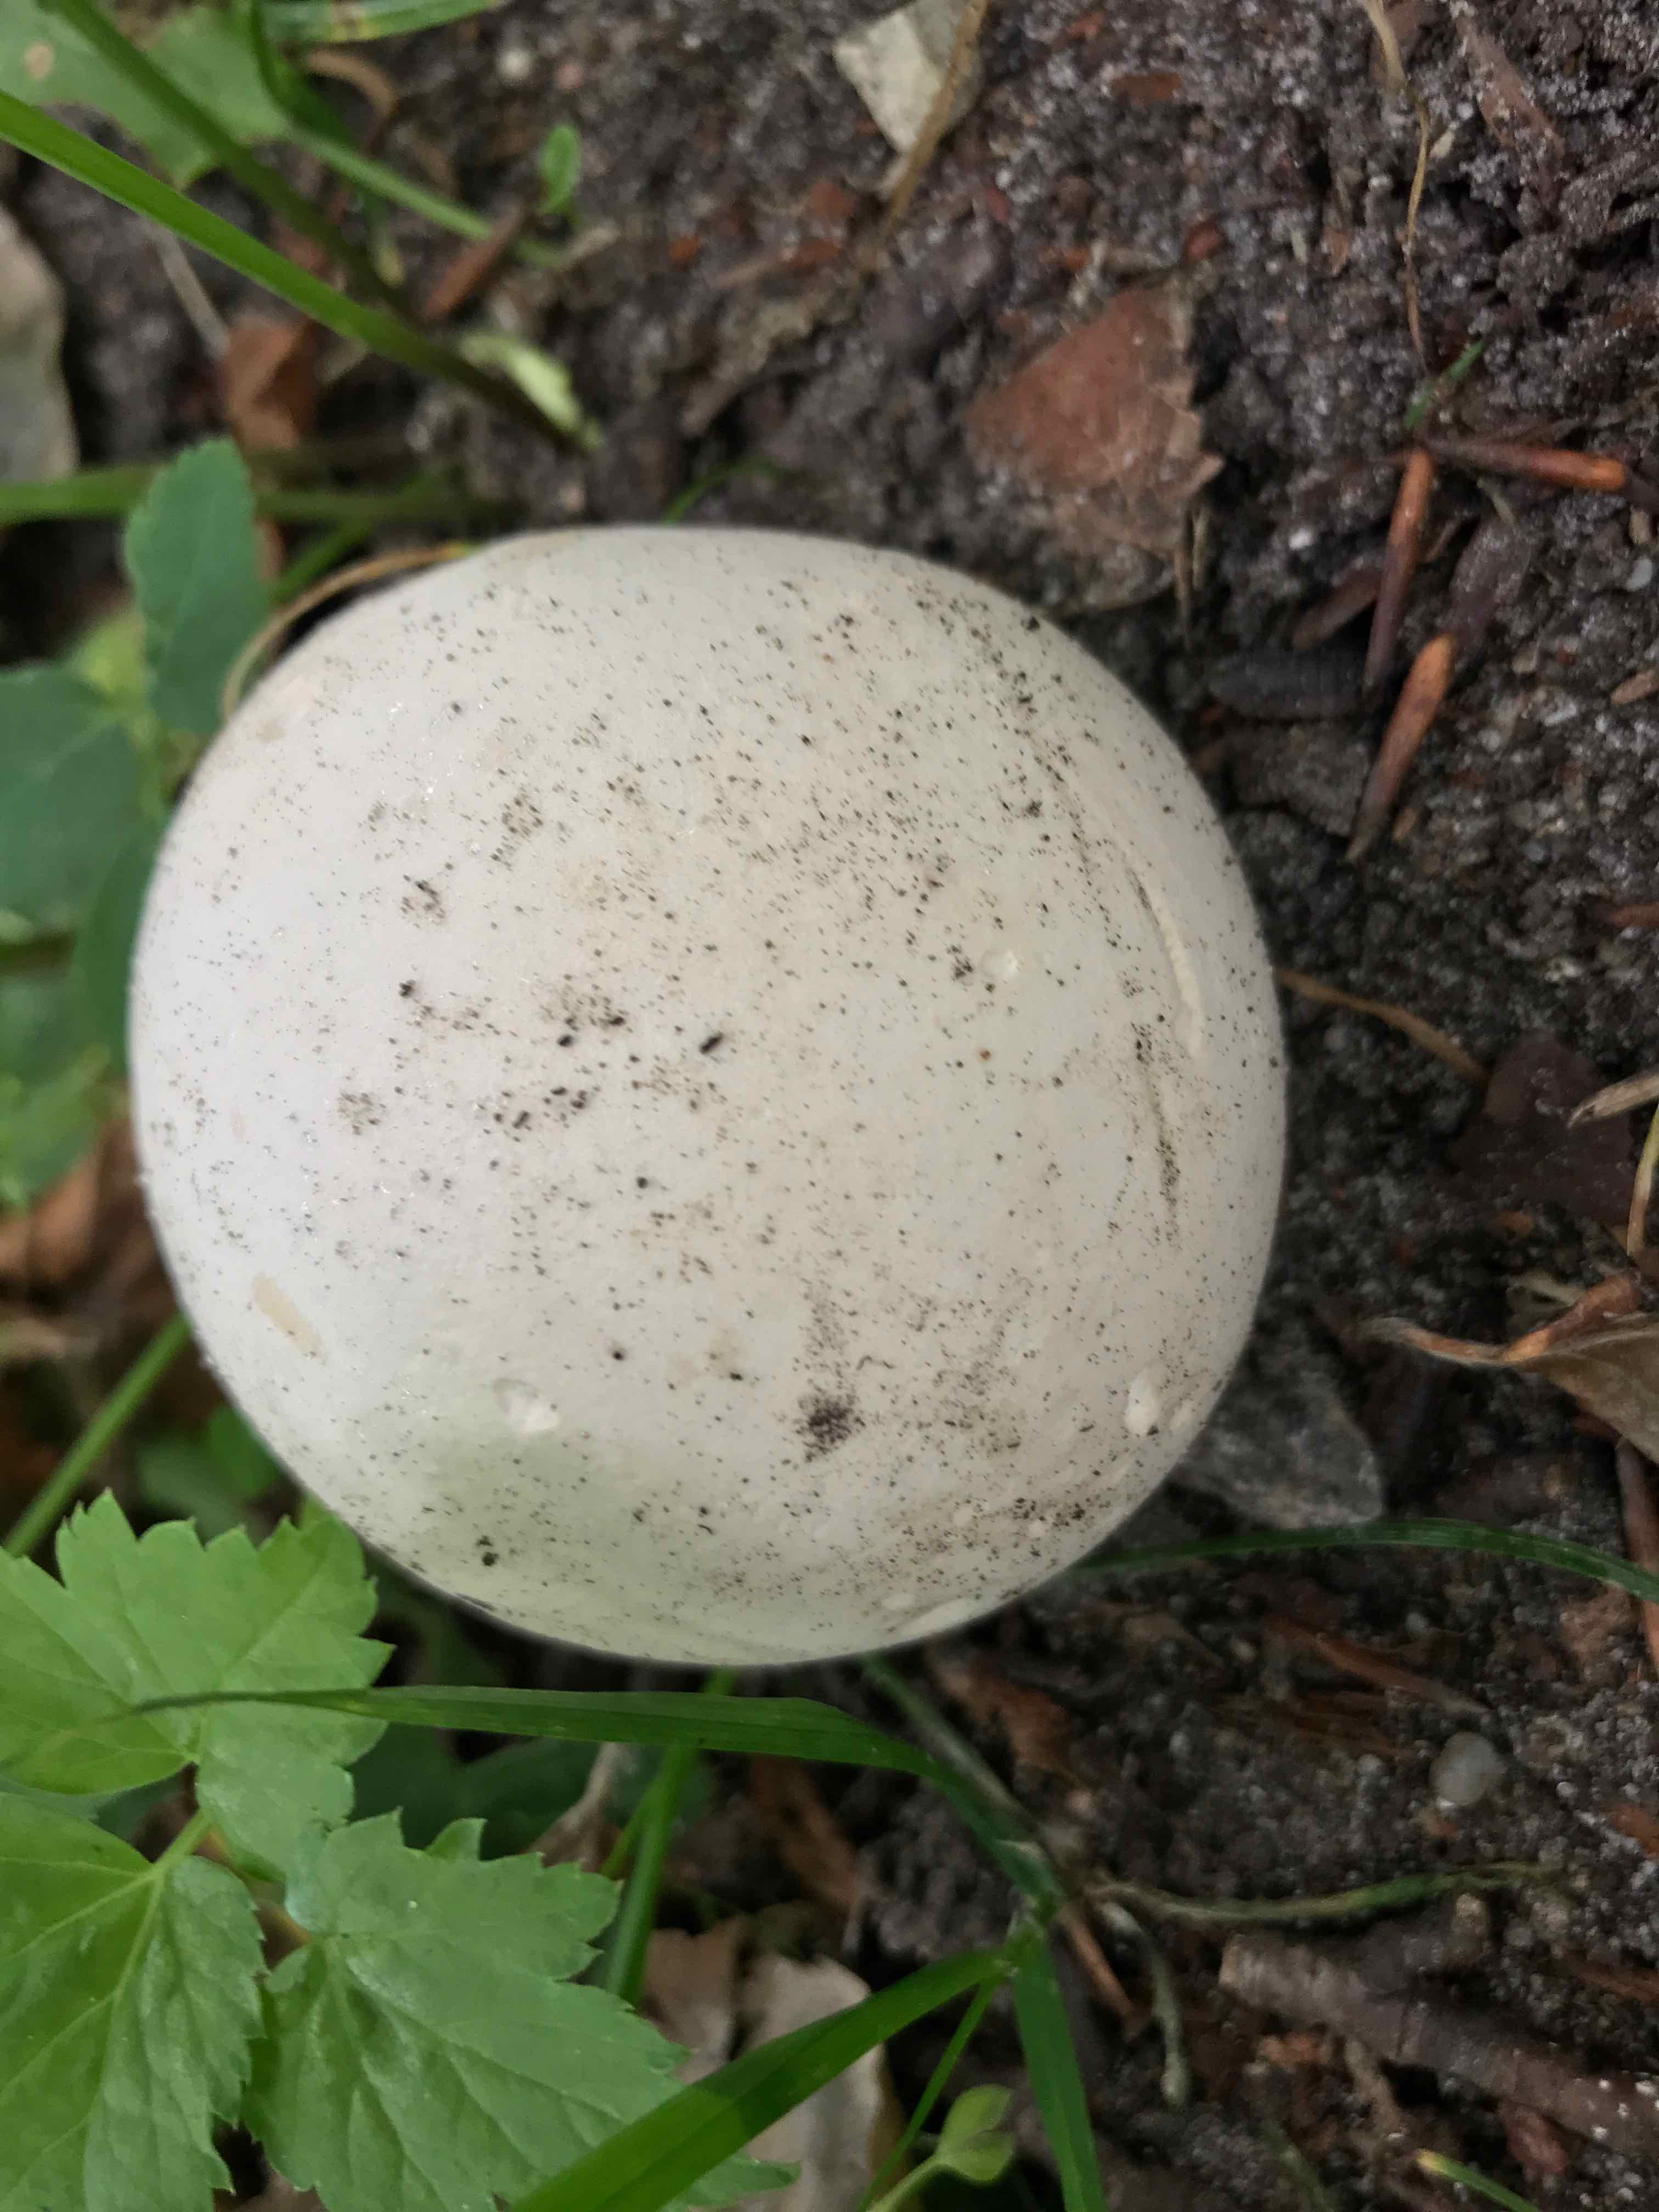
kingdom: Fungi
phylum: Basidiomycota
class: Agaricomycetes
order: Agaricales
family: Lycoperdaceae
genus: Calvatia
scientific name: Calvatia gigantea
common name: kæmpestøvbold
